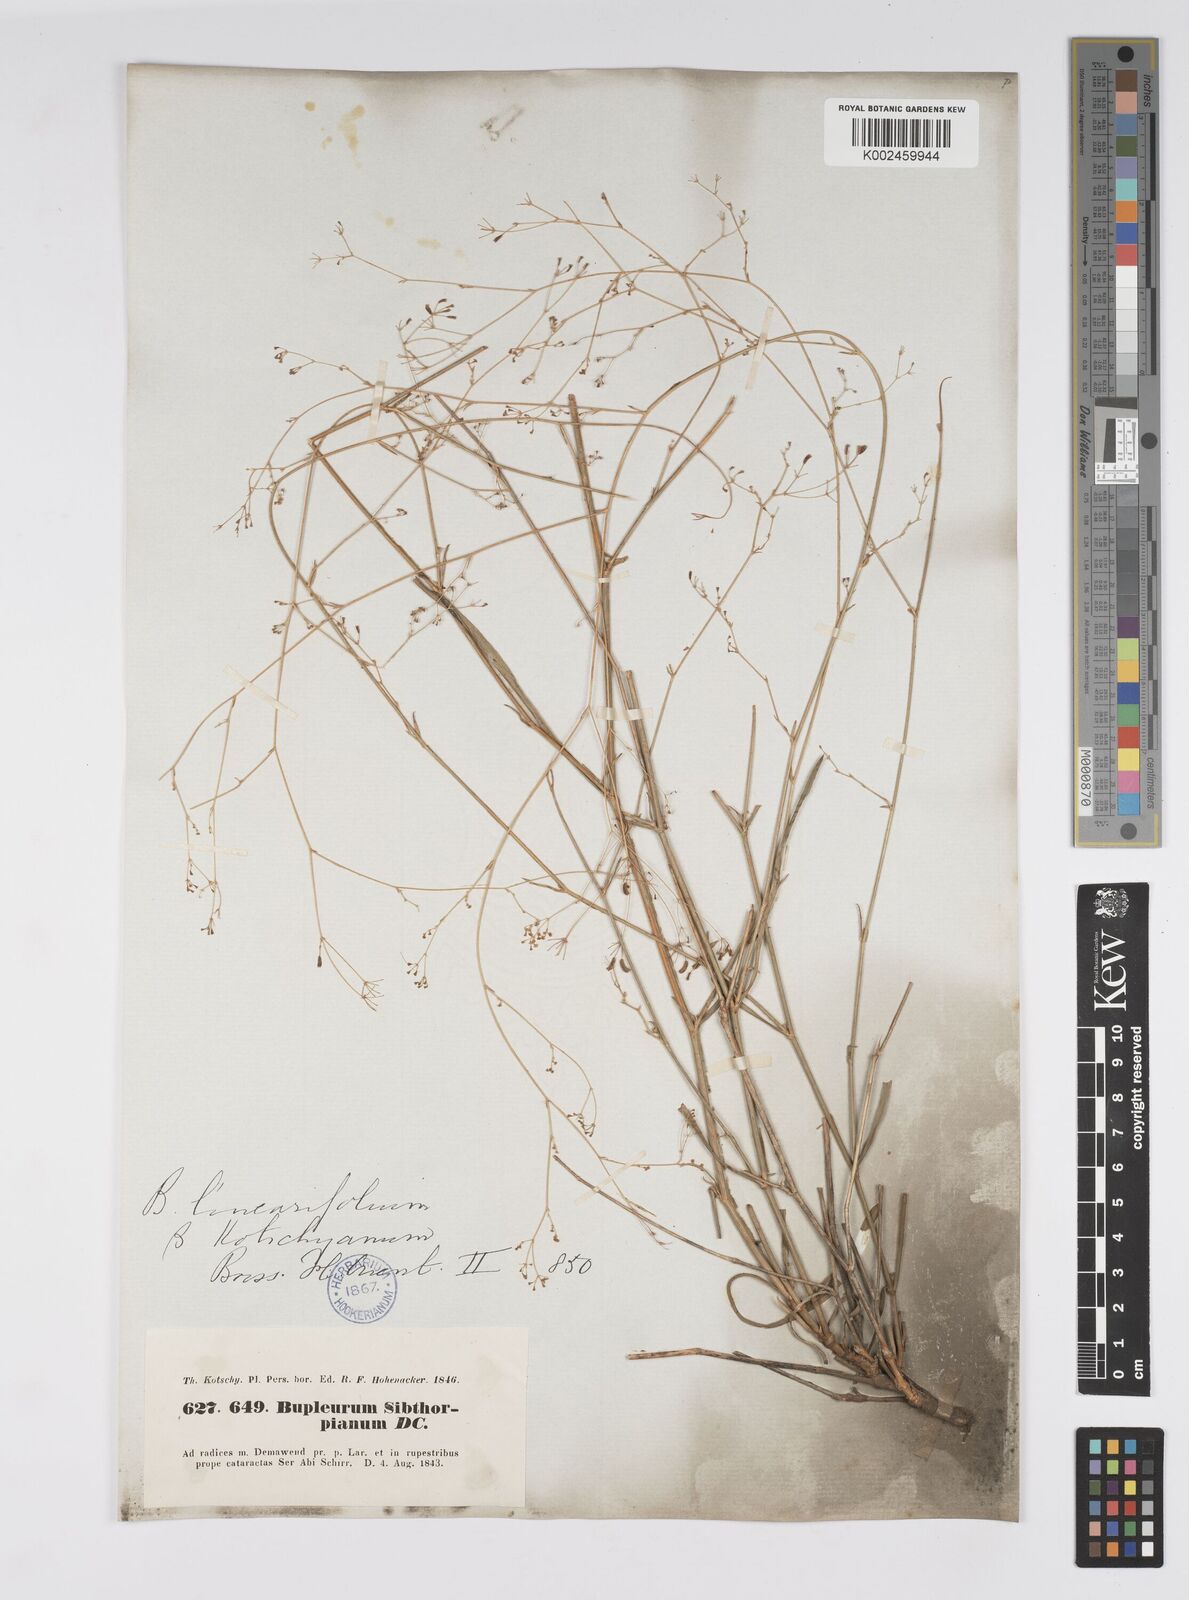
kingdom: Plantae
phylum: Tracheophyta
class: Magnoliopsida
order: Apiales
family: Apiaceae
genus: Bupleurum
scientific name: Bupleurum falcatum
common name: Sickle-leaved hare's-ear
